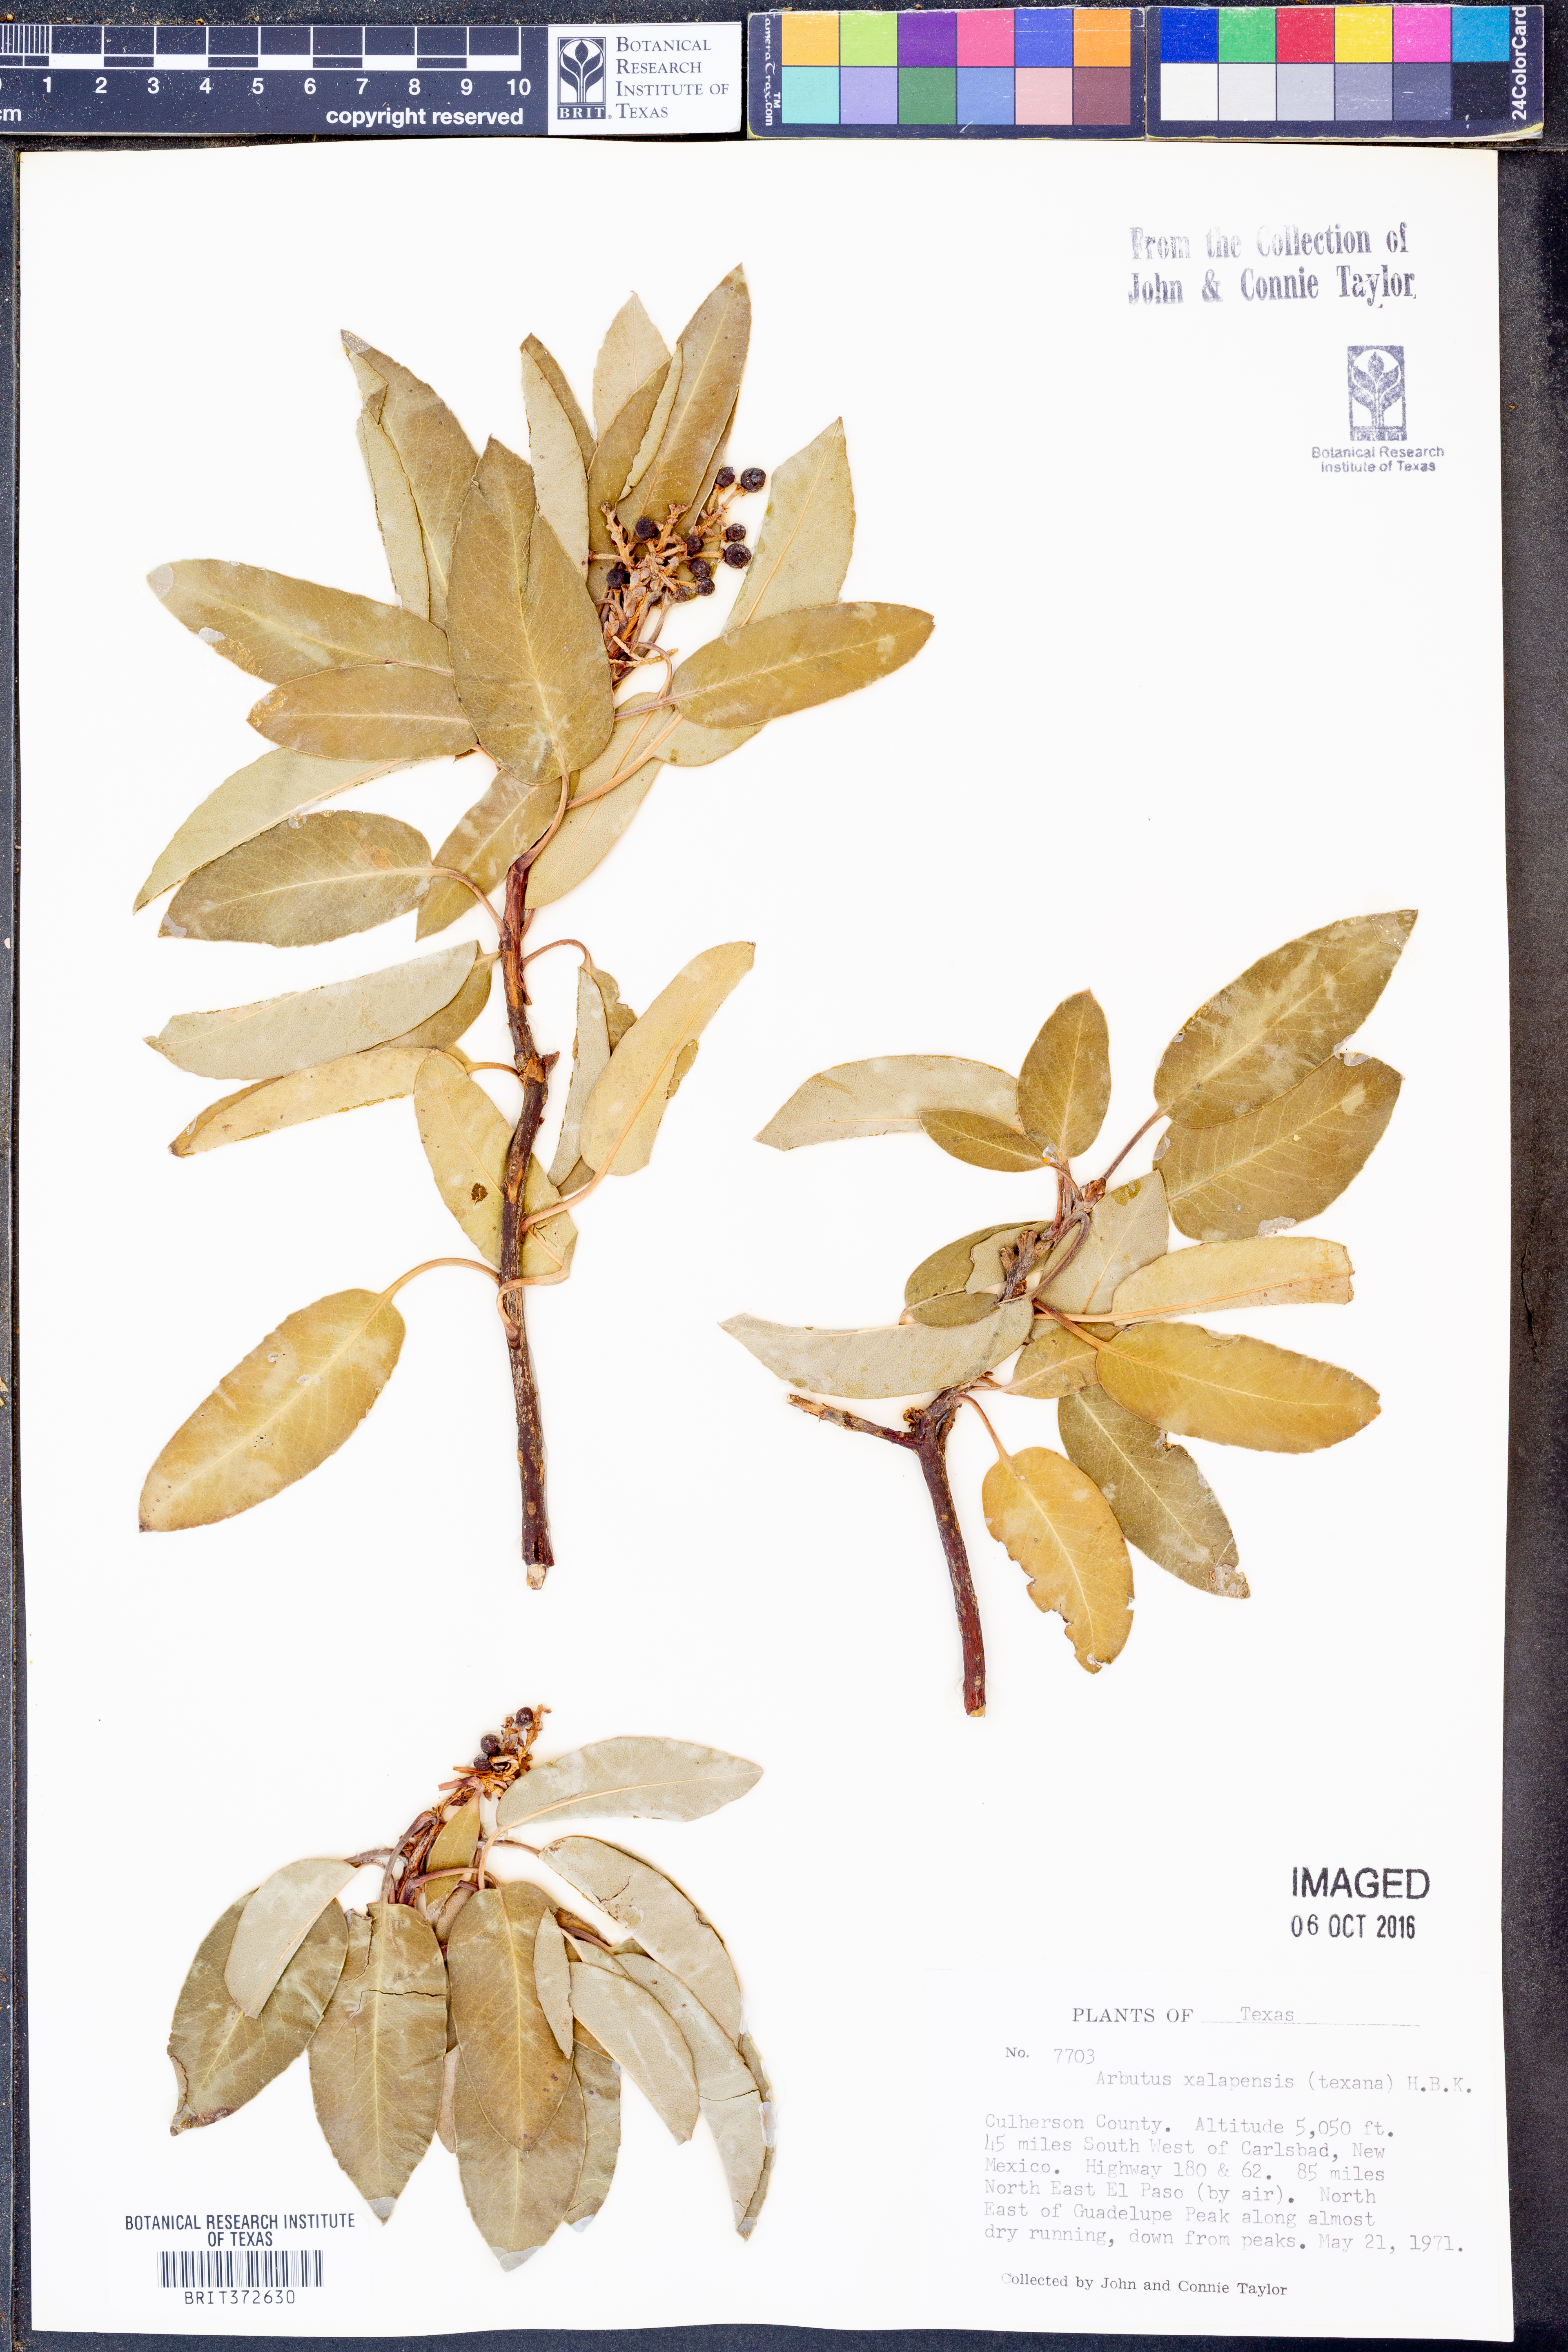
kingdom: Plantae
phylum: Tracheophyta
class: Magnoliopsida
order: Ericales
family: Ericaceae
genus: Arbutus
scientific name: Arbutus xalapensis
